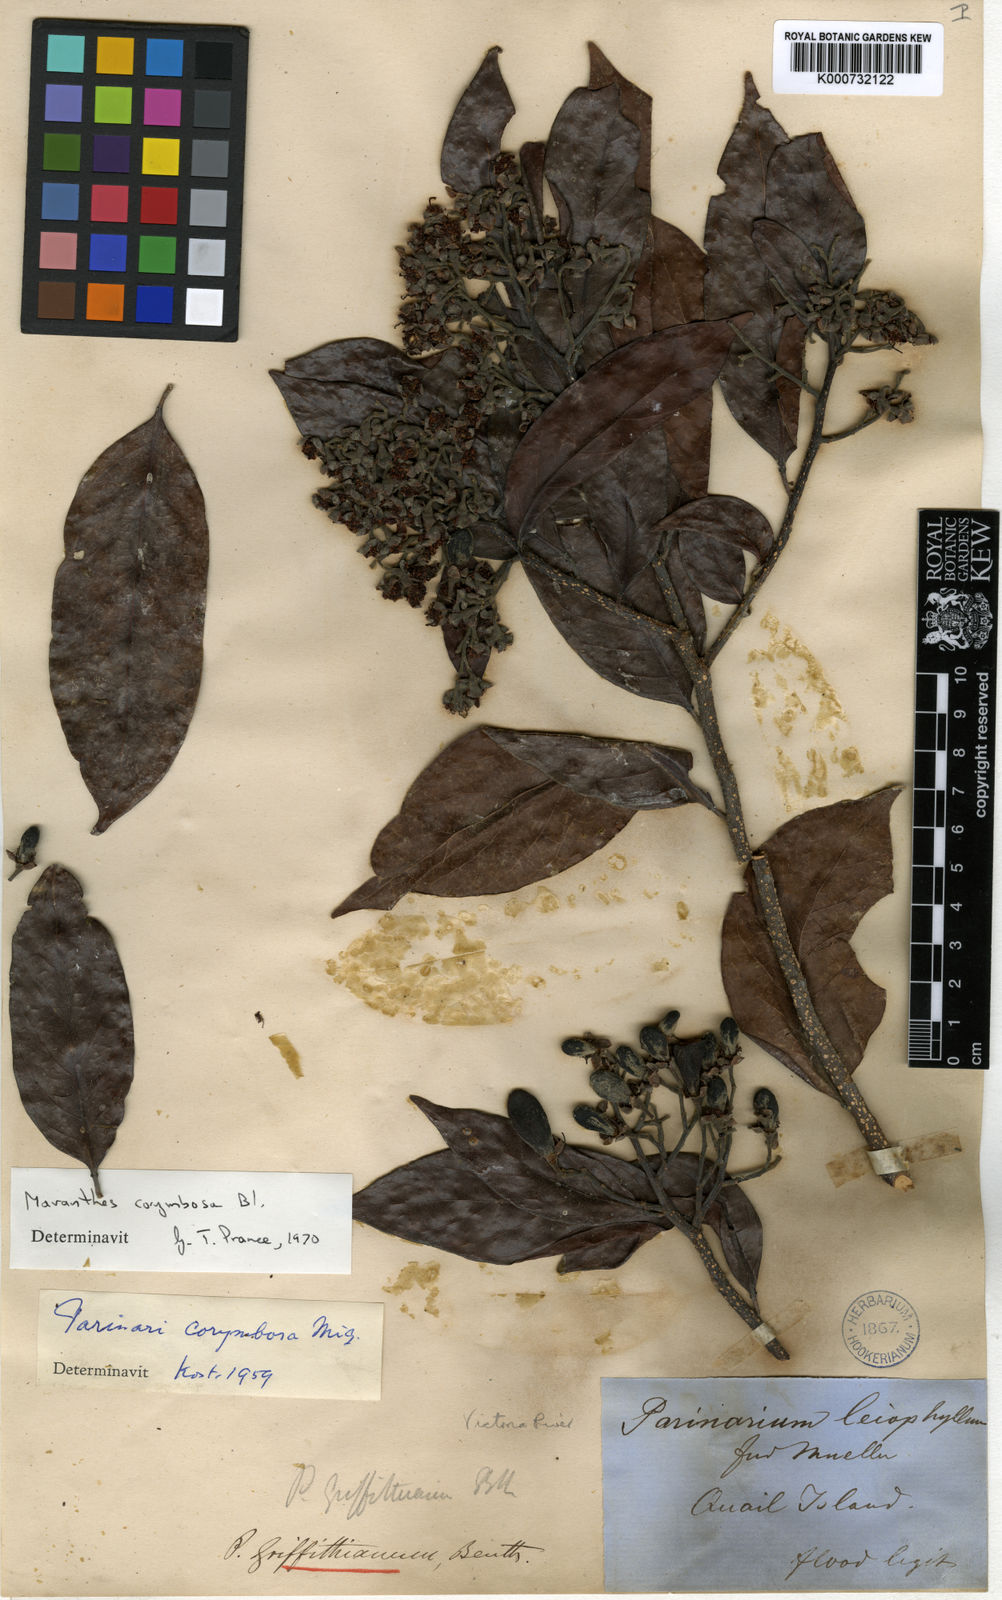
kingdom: Plantae
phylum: Tracheophyta
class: Magnoliopsida
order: Malpighiales
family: Chrysobalanaceae
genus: Maranthes
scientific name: Maranthes corymbosa
